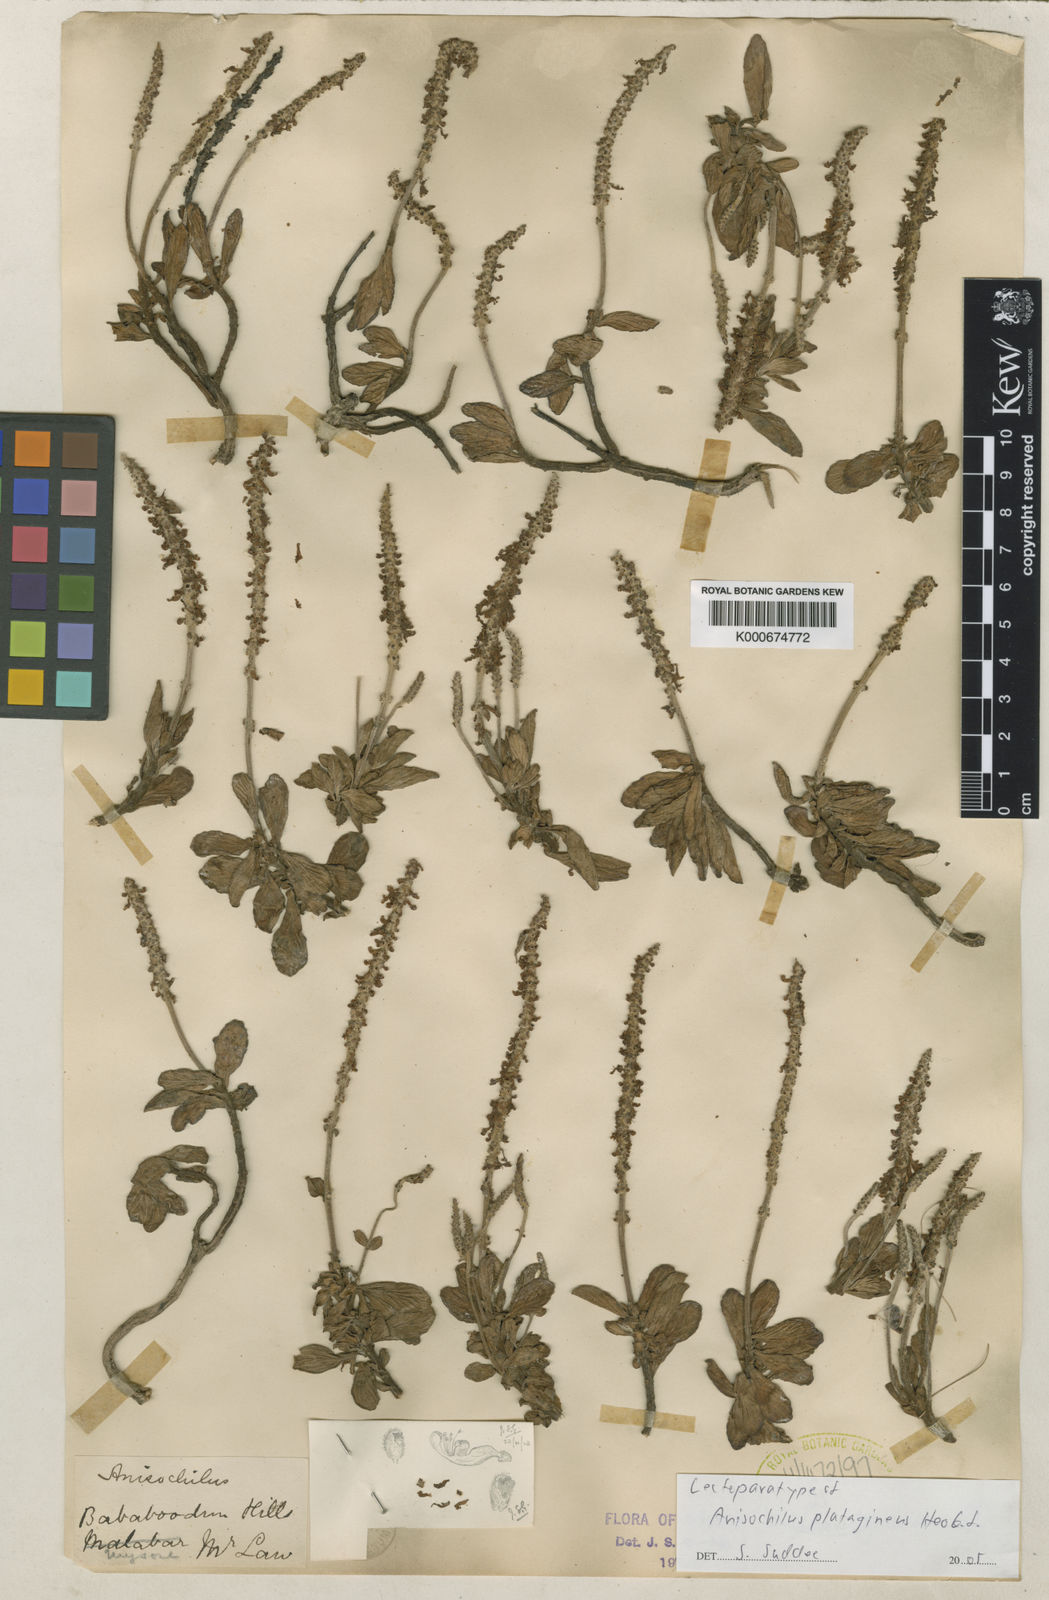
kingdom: Plantae
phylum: Tracheophyta
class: Magnoliopsida
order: Lamiales
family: Lamiaceae
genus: Coleus
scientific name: Coleus plantagineus
